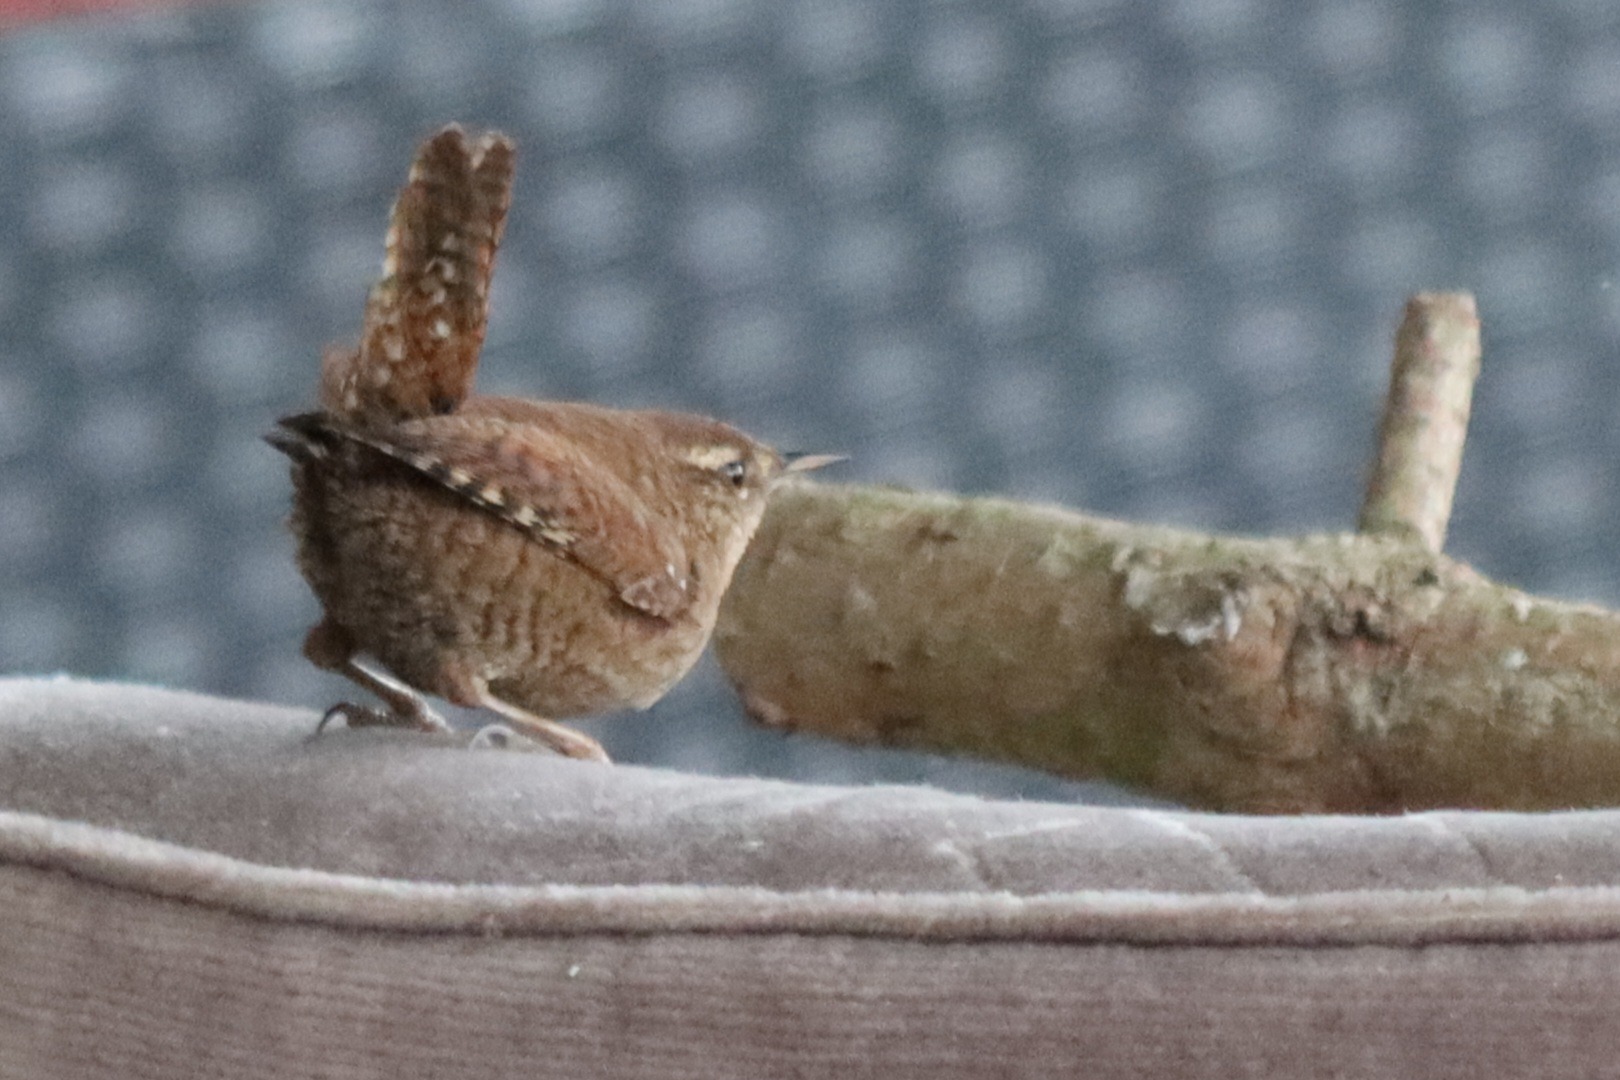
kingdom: Animalia
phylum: Chordata
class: Aves
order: Passeriformes
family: Troglodytidae
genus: Troglodytes
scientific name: Troglodytes troglodytes
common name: Gærdesmutte
